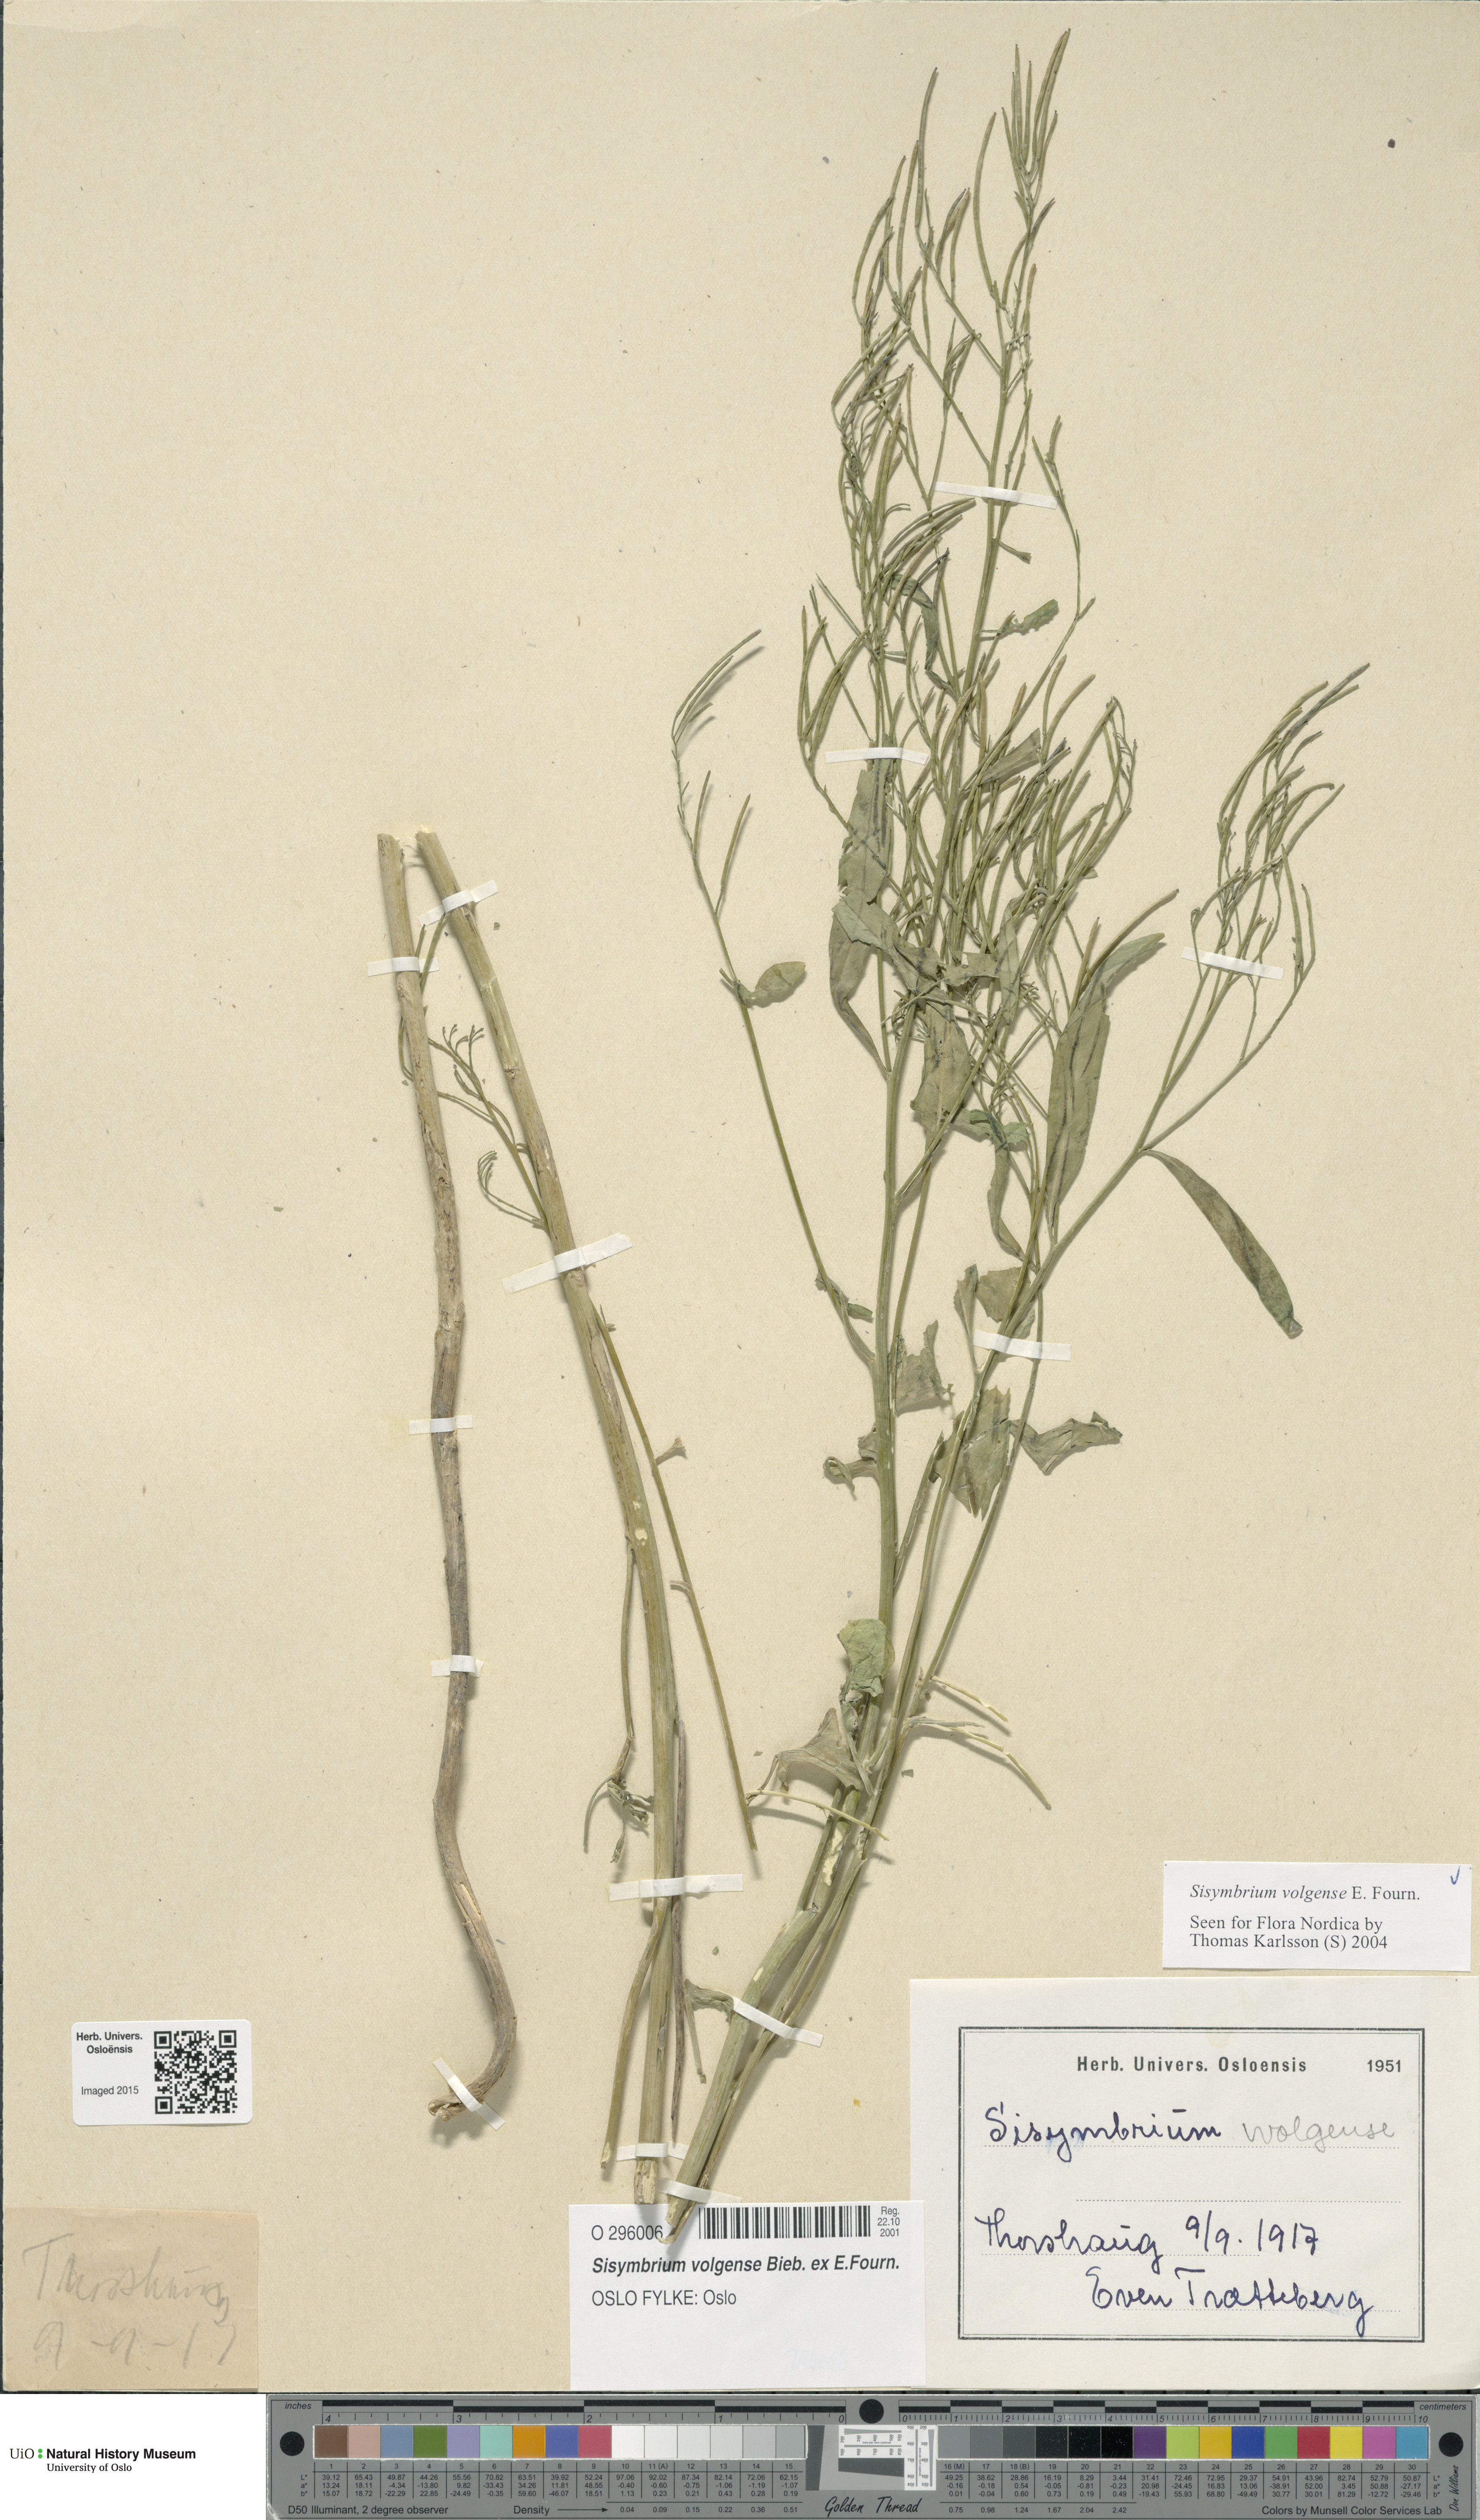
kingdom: Plantae
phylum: Tracheophyta
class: Magnoliopsida
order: Brassicales
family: Brassicaceae
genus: Sisymbrium
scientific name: Sisymbrium volgense
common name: Russian mustard
